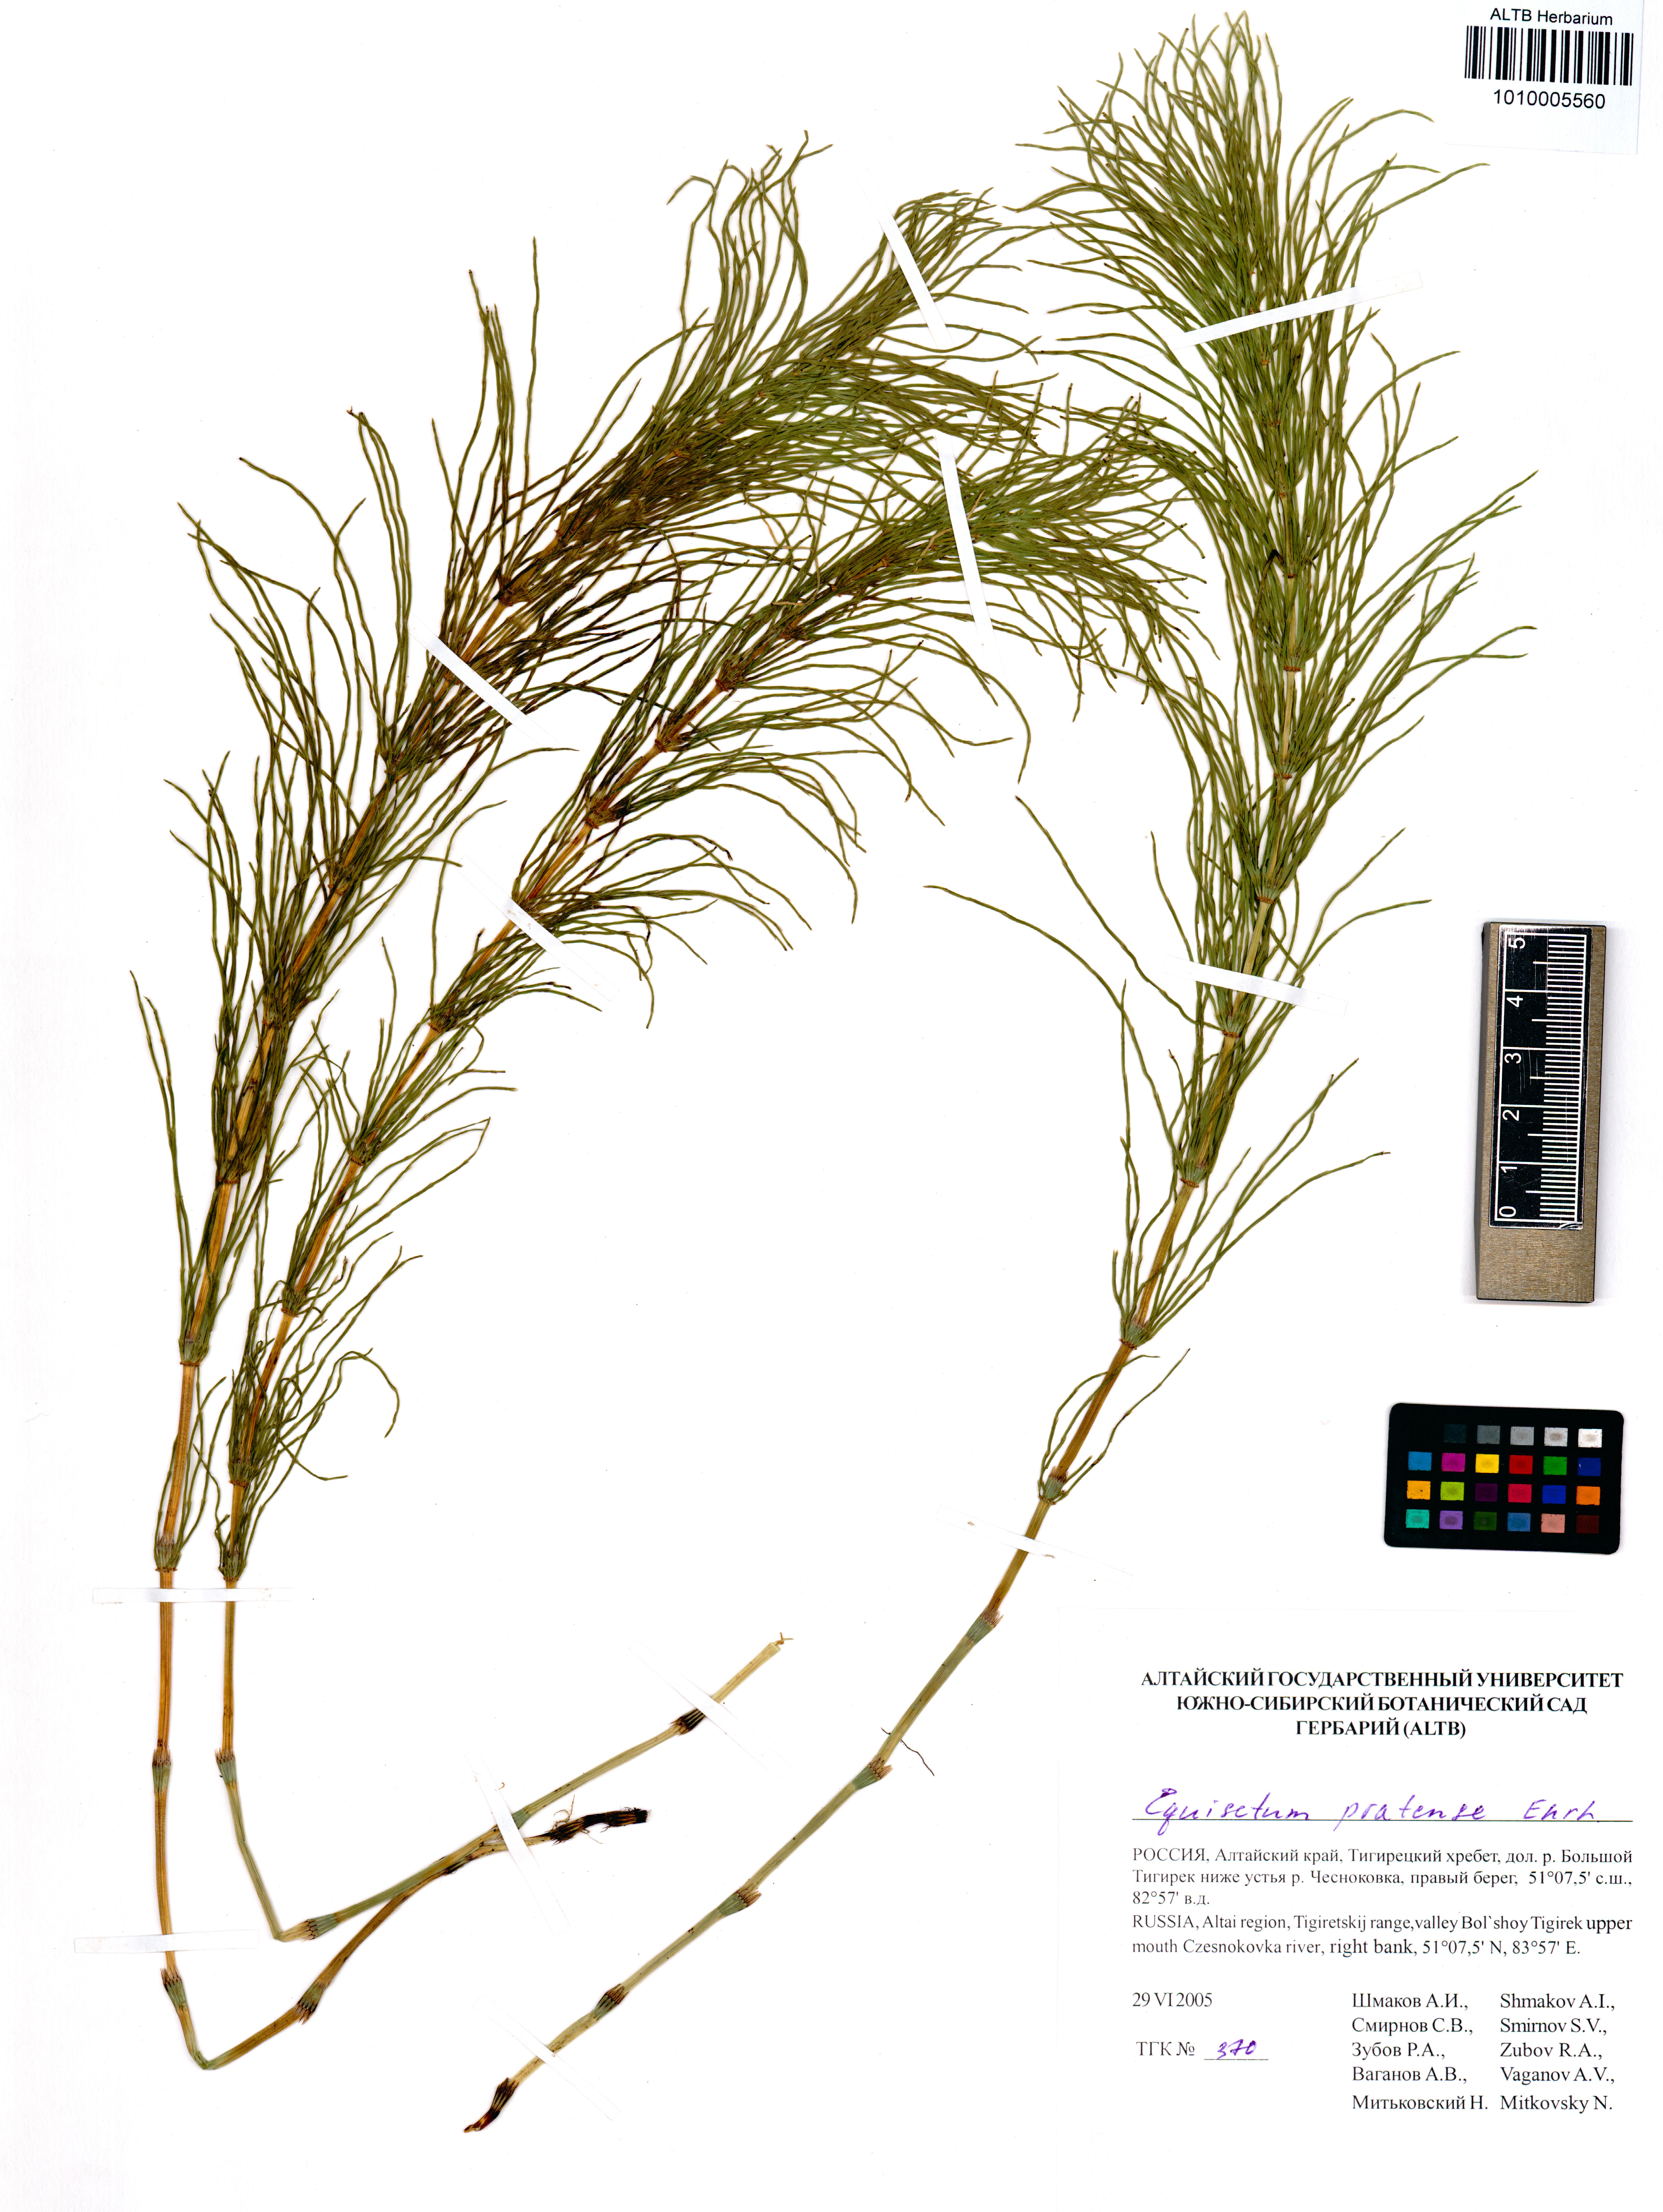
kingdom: Plantae
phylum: Tracheophyta
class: Polypodiopsida
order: Equisetales
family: Equisetaceae
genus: Equisetum
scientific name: Equisetum pratense
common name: Meadow horsetail
